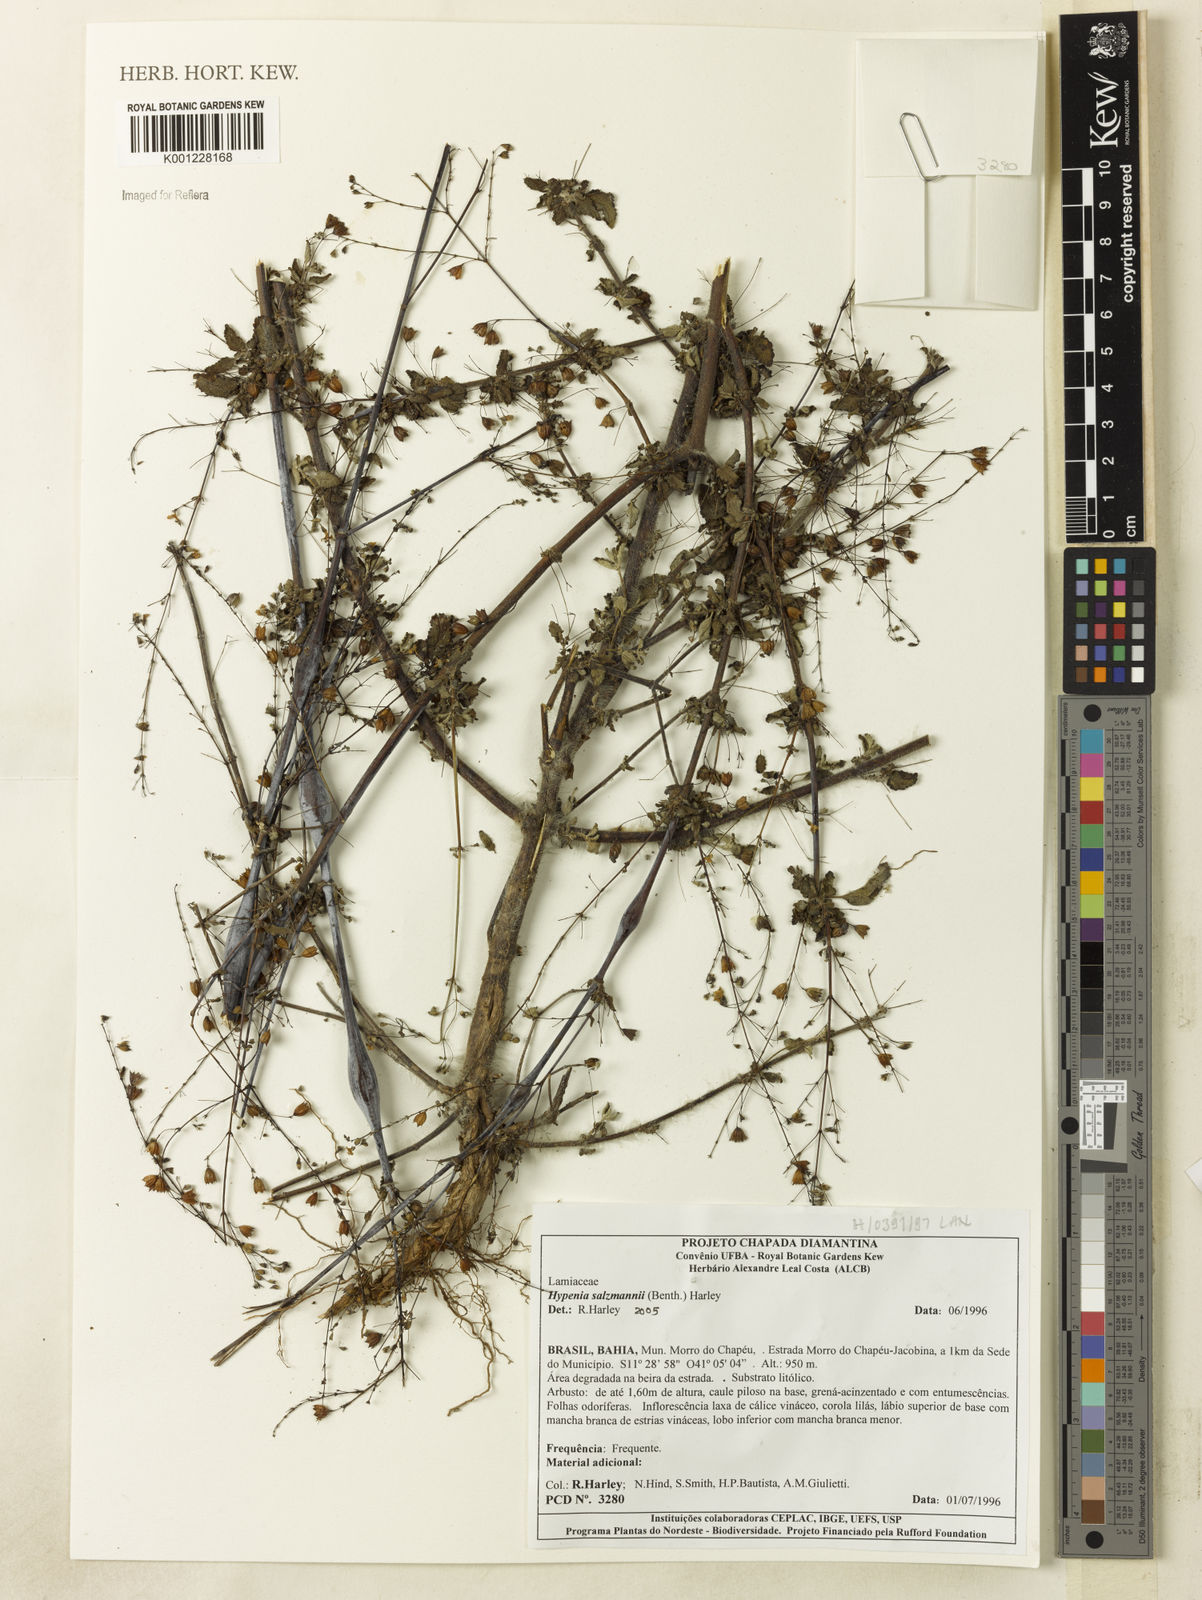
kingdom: Plantae
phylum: Tracheophyta
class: Magnoliopsida
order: Lamiales
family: Lamiaceae
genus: Hypenia
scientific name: Hypenia salzmannii
